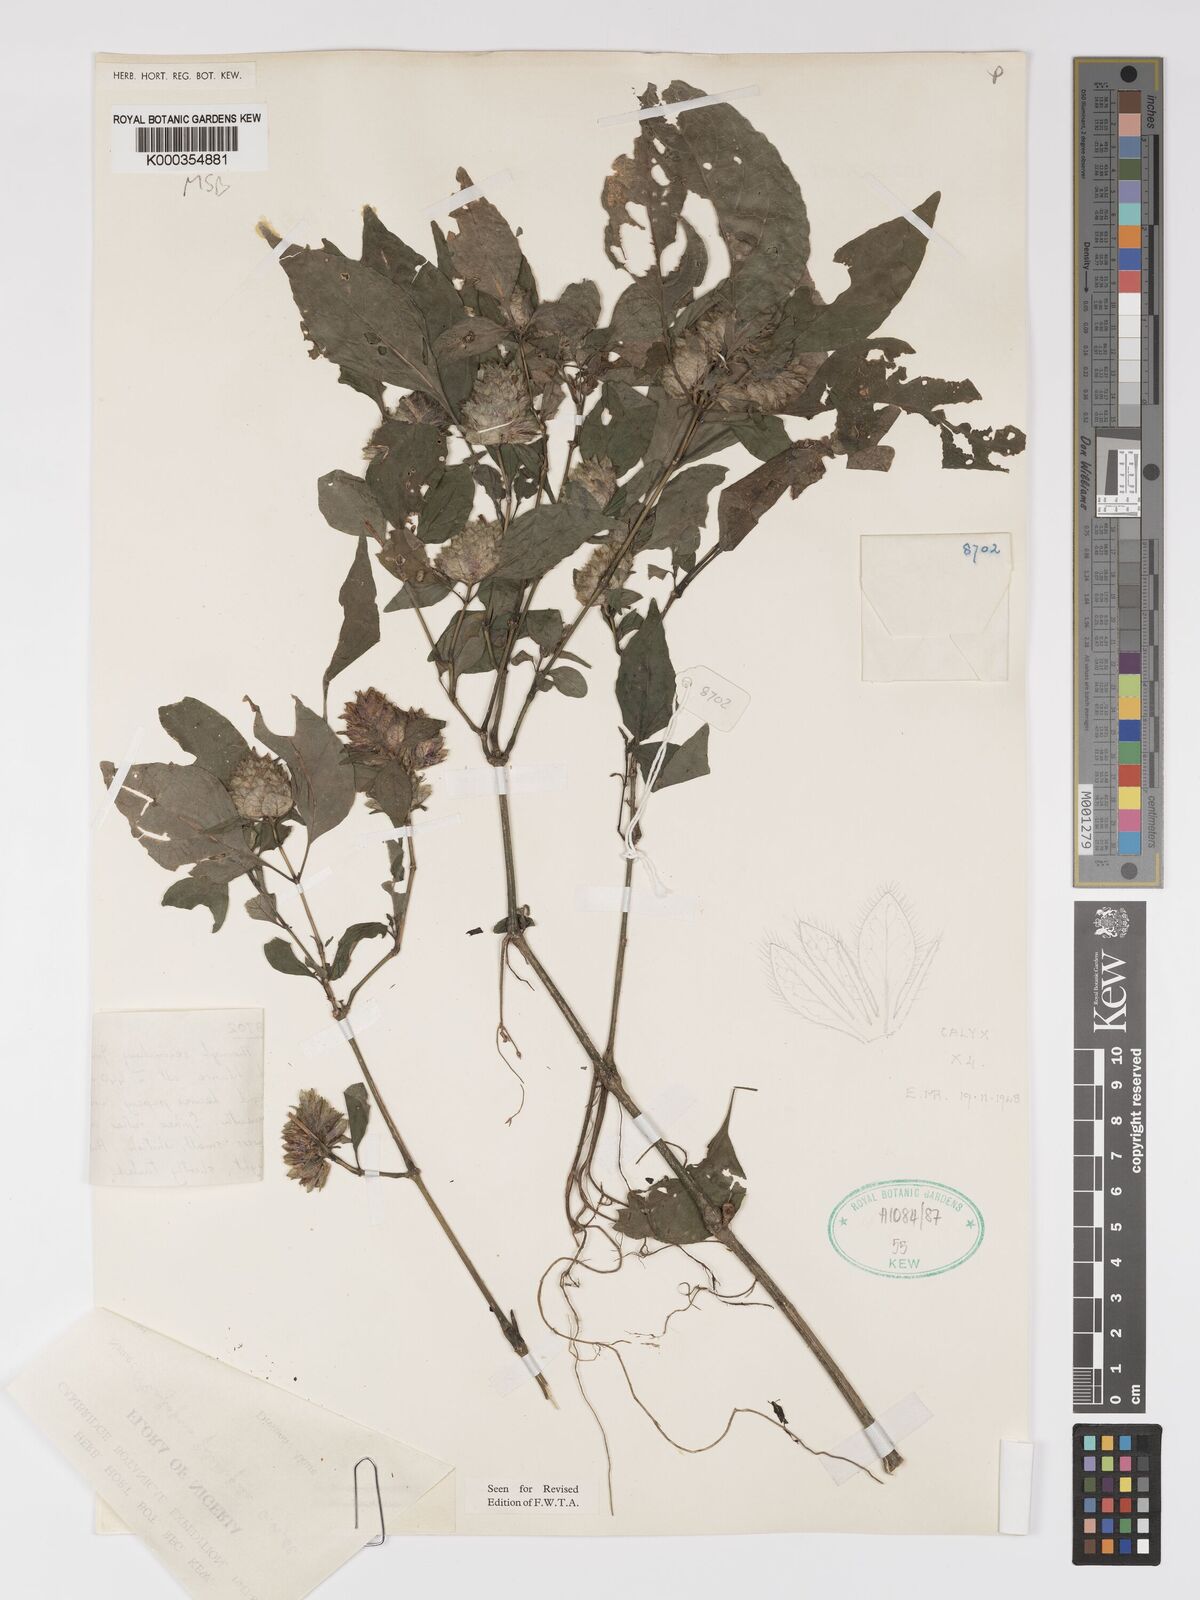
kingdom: Plantae
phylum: Tracheophyta
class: Magnoliopsida
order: Lamiales
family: Acanthaceae
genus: Phaulopsis
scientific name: Phaulopsis ciliata
